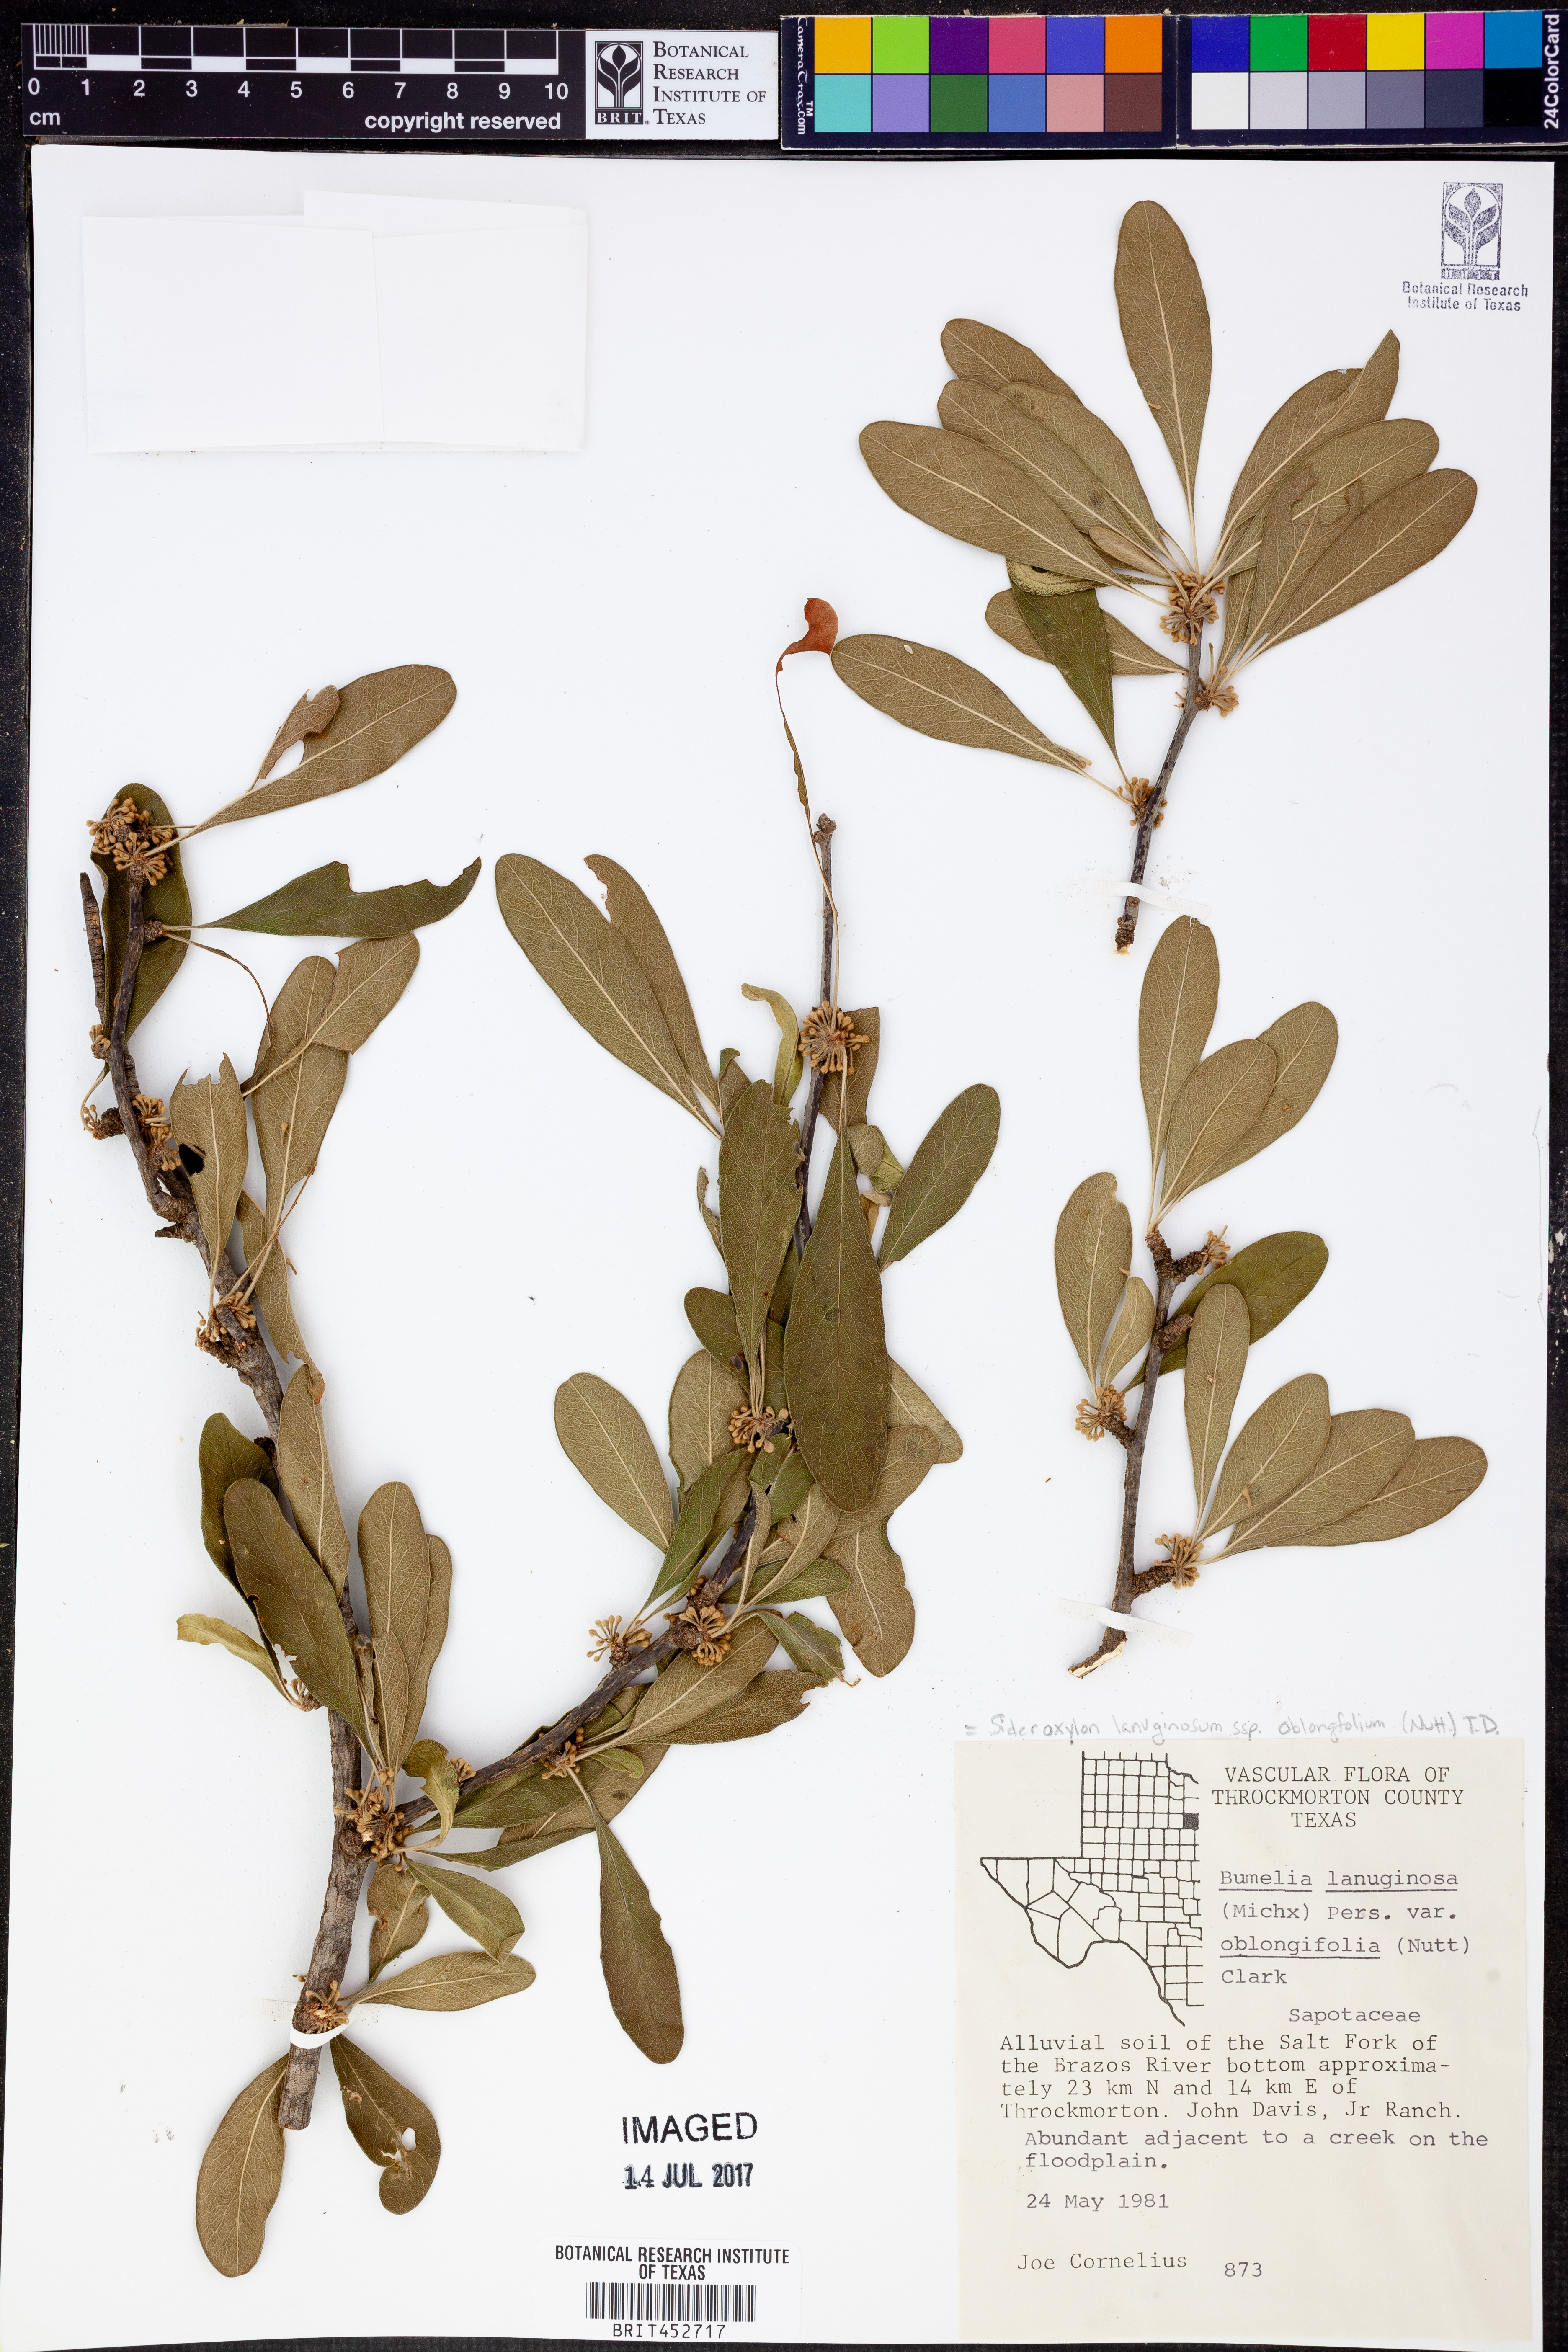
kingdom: Plantae
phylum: Tracheophyta
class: Magnoliopsida
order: Ericales
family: Sapotaceae
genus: Sideroxylon
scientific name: Sideroxylon lanuginosum
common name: Chittamwood
